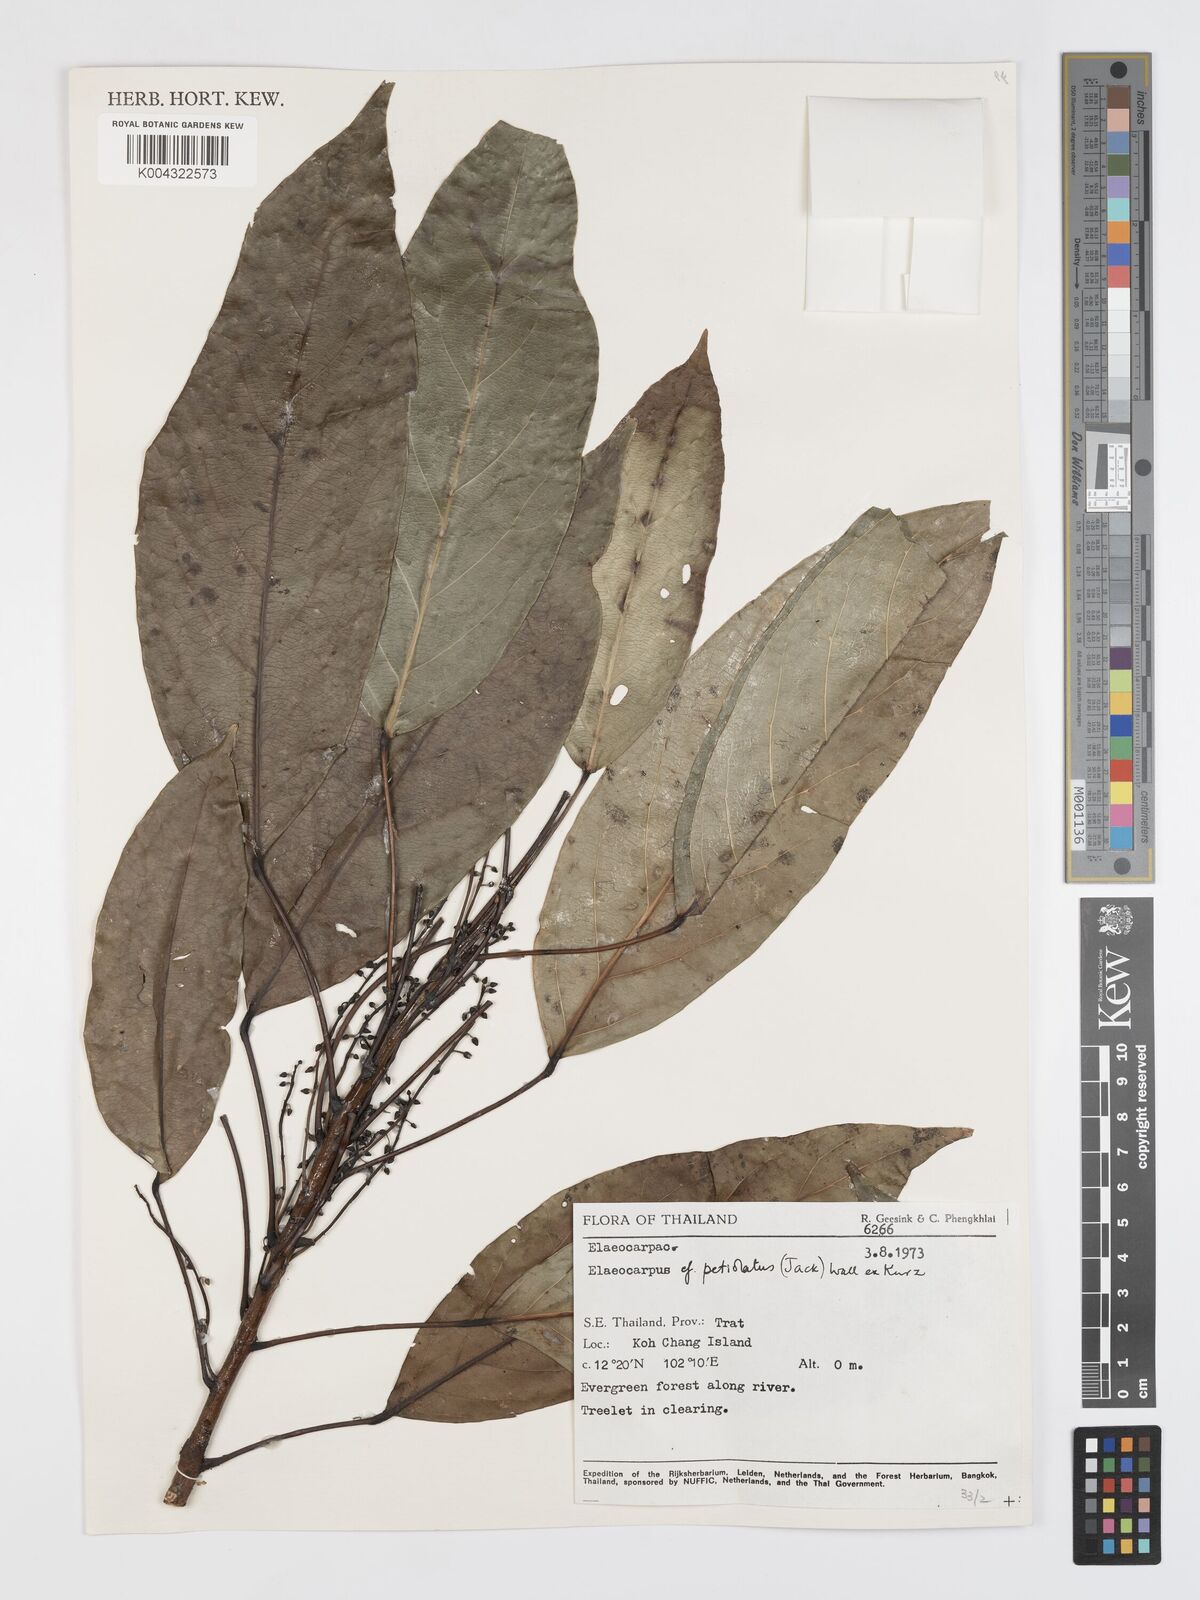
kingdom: Plantae
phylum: Tracheophyta
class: Magnoliopsida
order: Oxalidales
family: Elaeocarpaceae
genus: Elaeocarpus
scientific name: Elaeocarpus petiolatus
